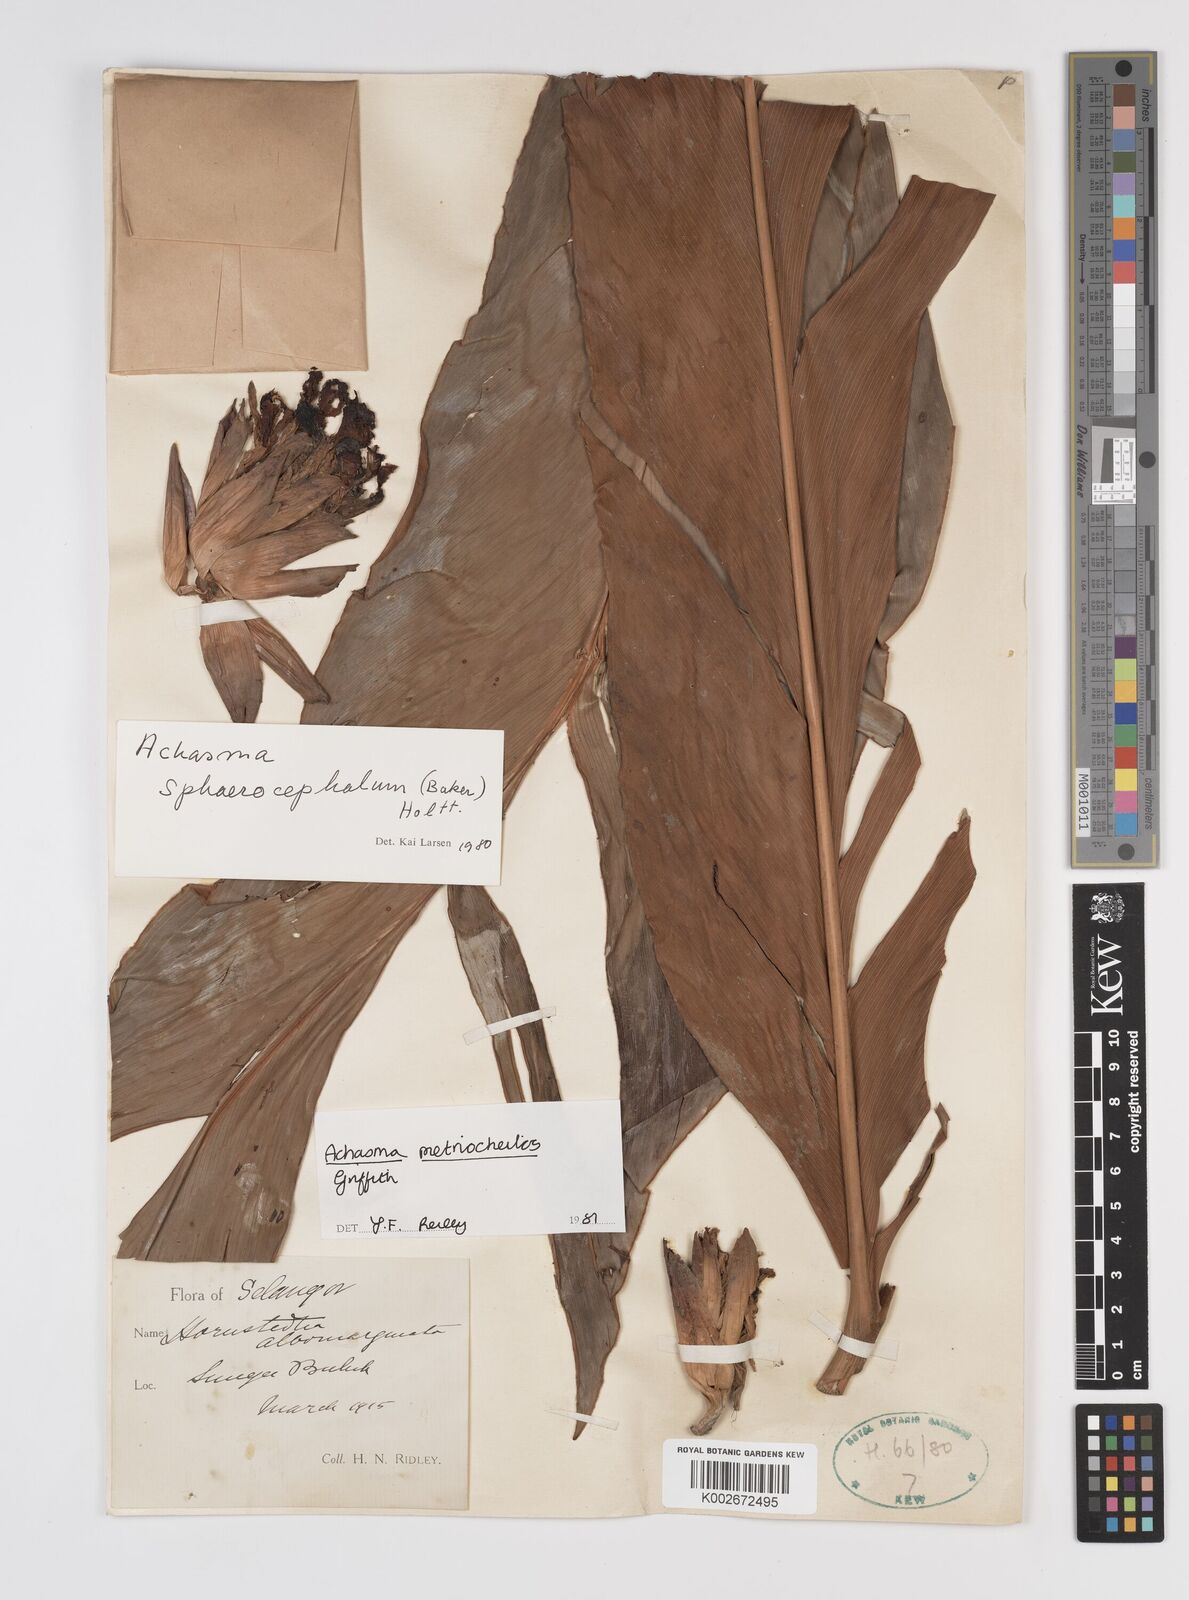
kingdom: Plantae
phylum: Tracheophyta
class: Liliopsida
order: Zingiberales
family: Zingiberaceae
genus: Etlingera
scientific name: Etlingera metriocheilos
